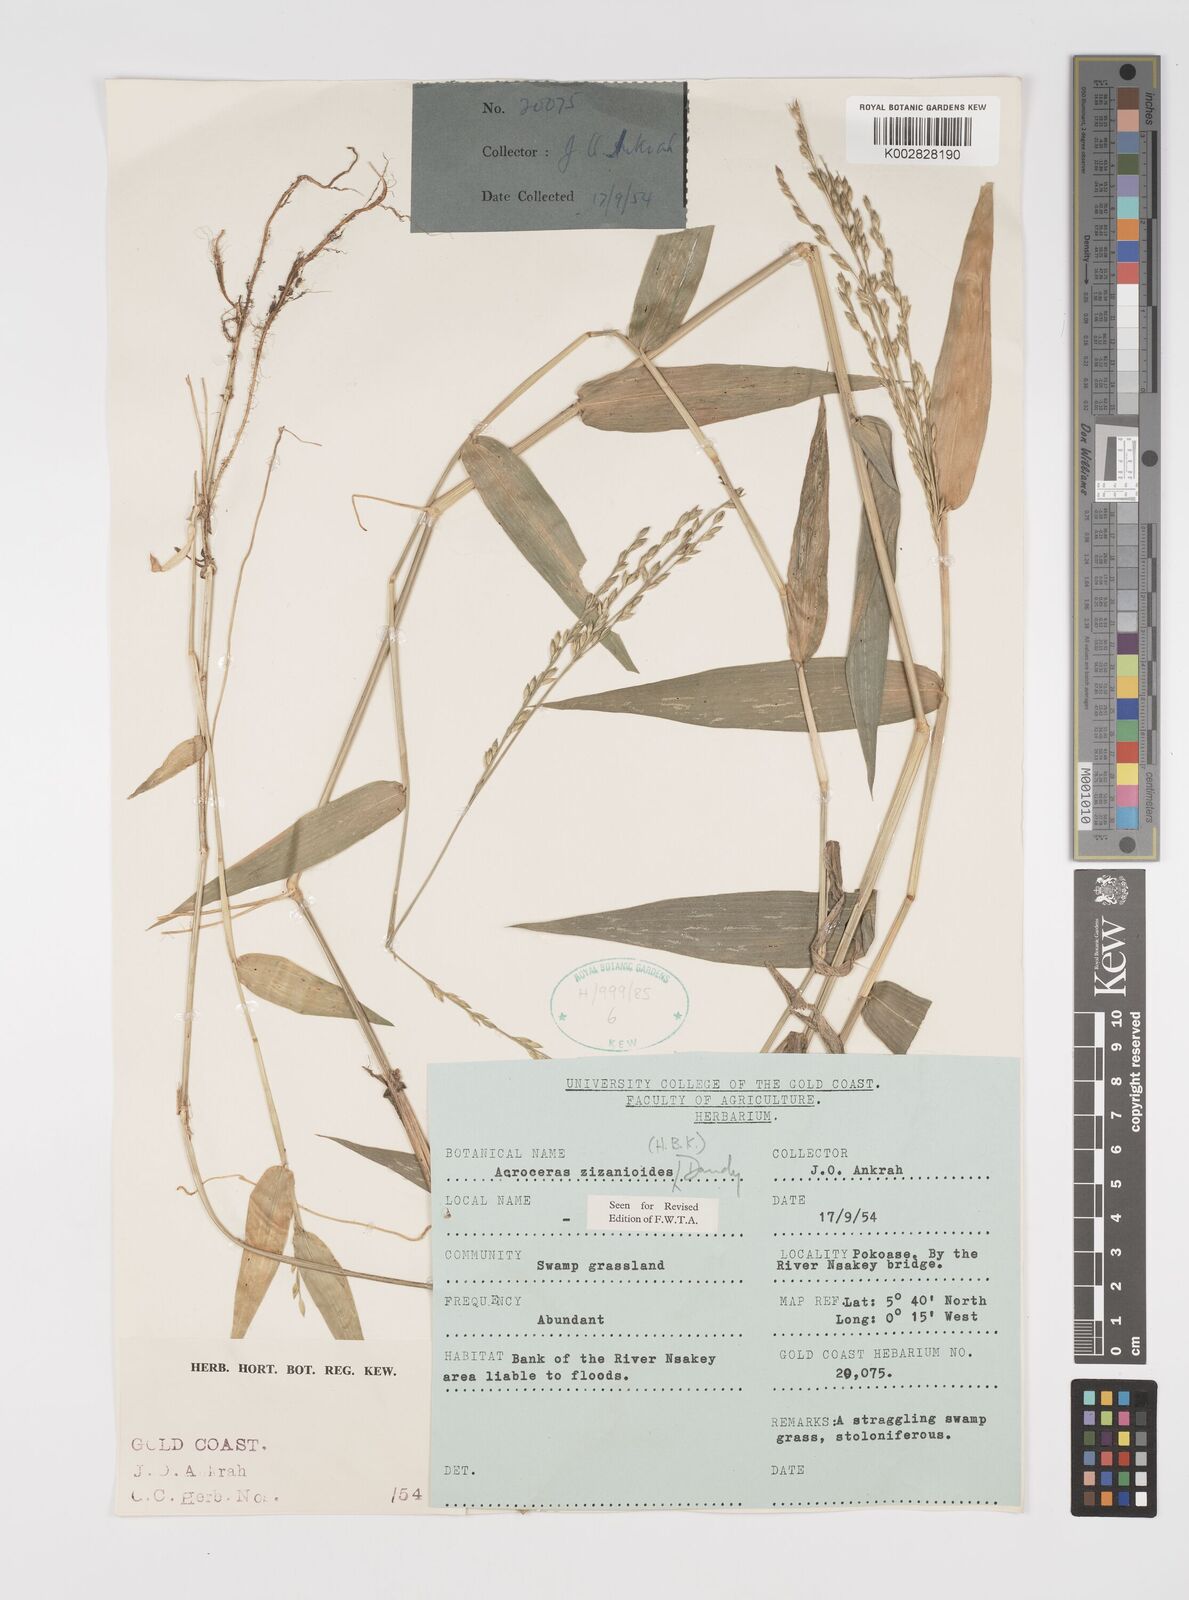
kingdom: Plantae
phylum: Tracheophyta
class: Liliopsida
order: Poales
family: Poaceae
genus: Acroceras
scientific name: Acroceras zizanioides
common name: Oat grass
